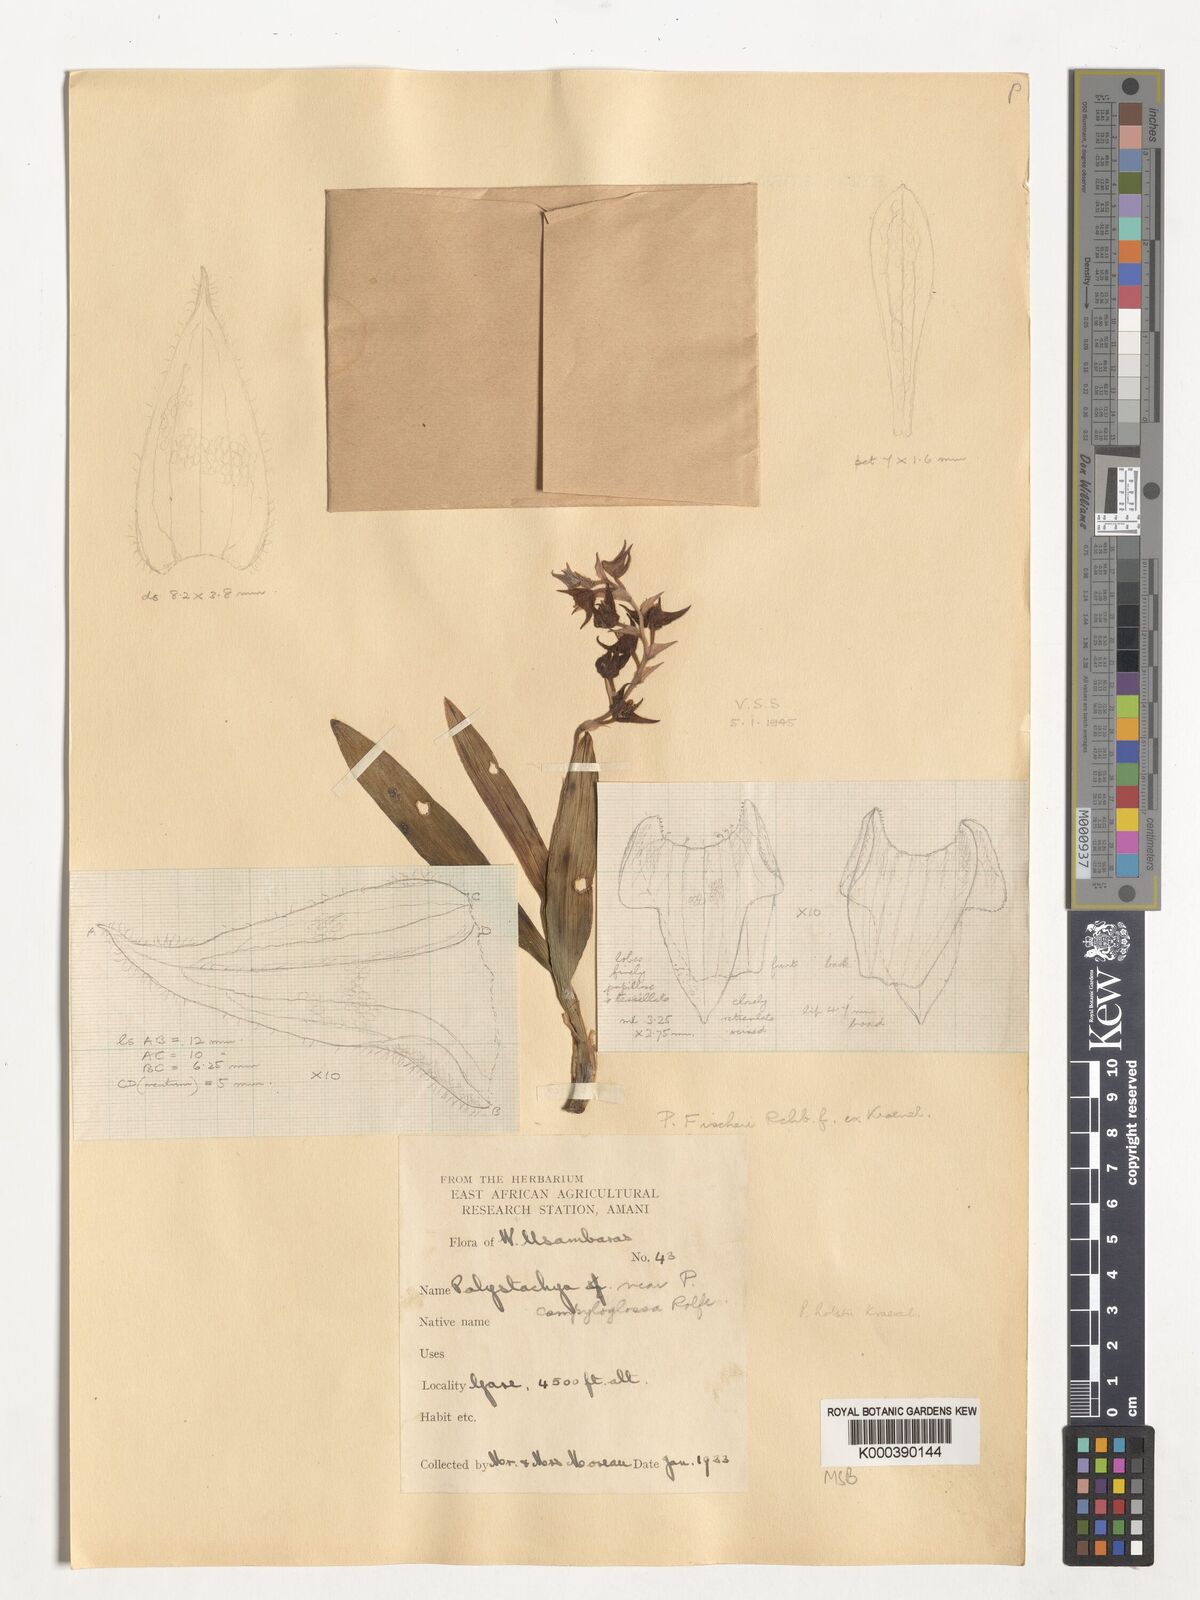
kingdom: Plantae
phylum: Tracheophyta
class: Liliopsida
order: Asparagales
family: Orchidaceae
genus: Polystachya
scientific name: Polystachya holstii
